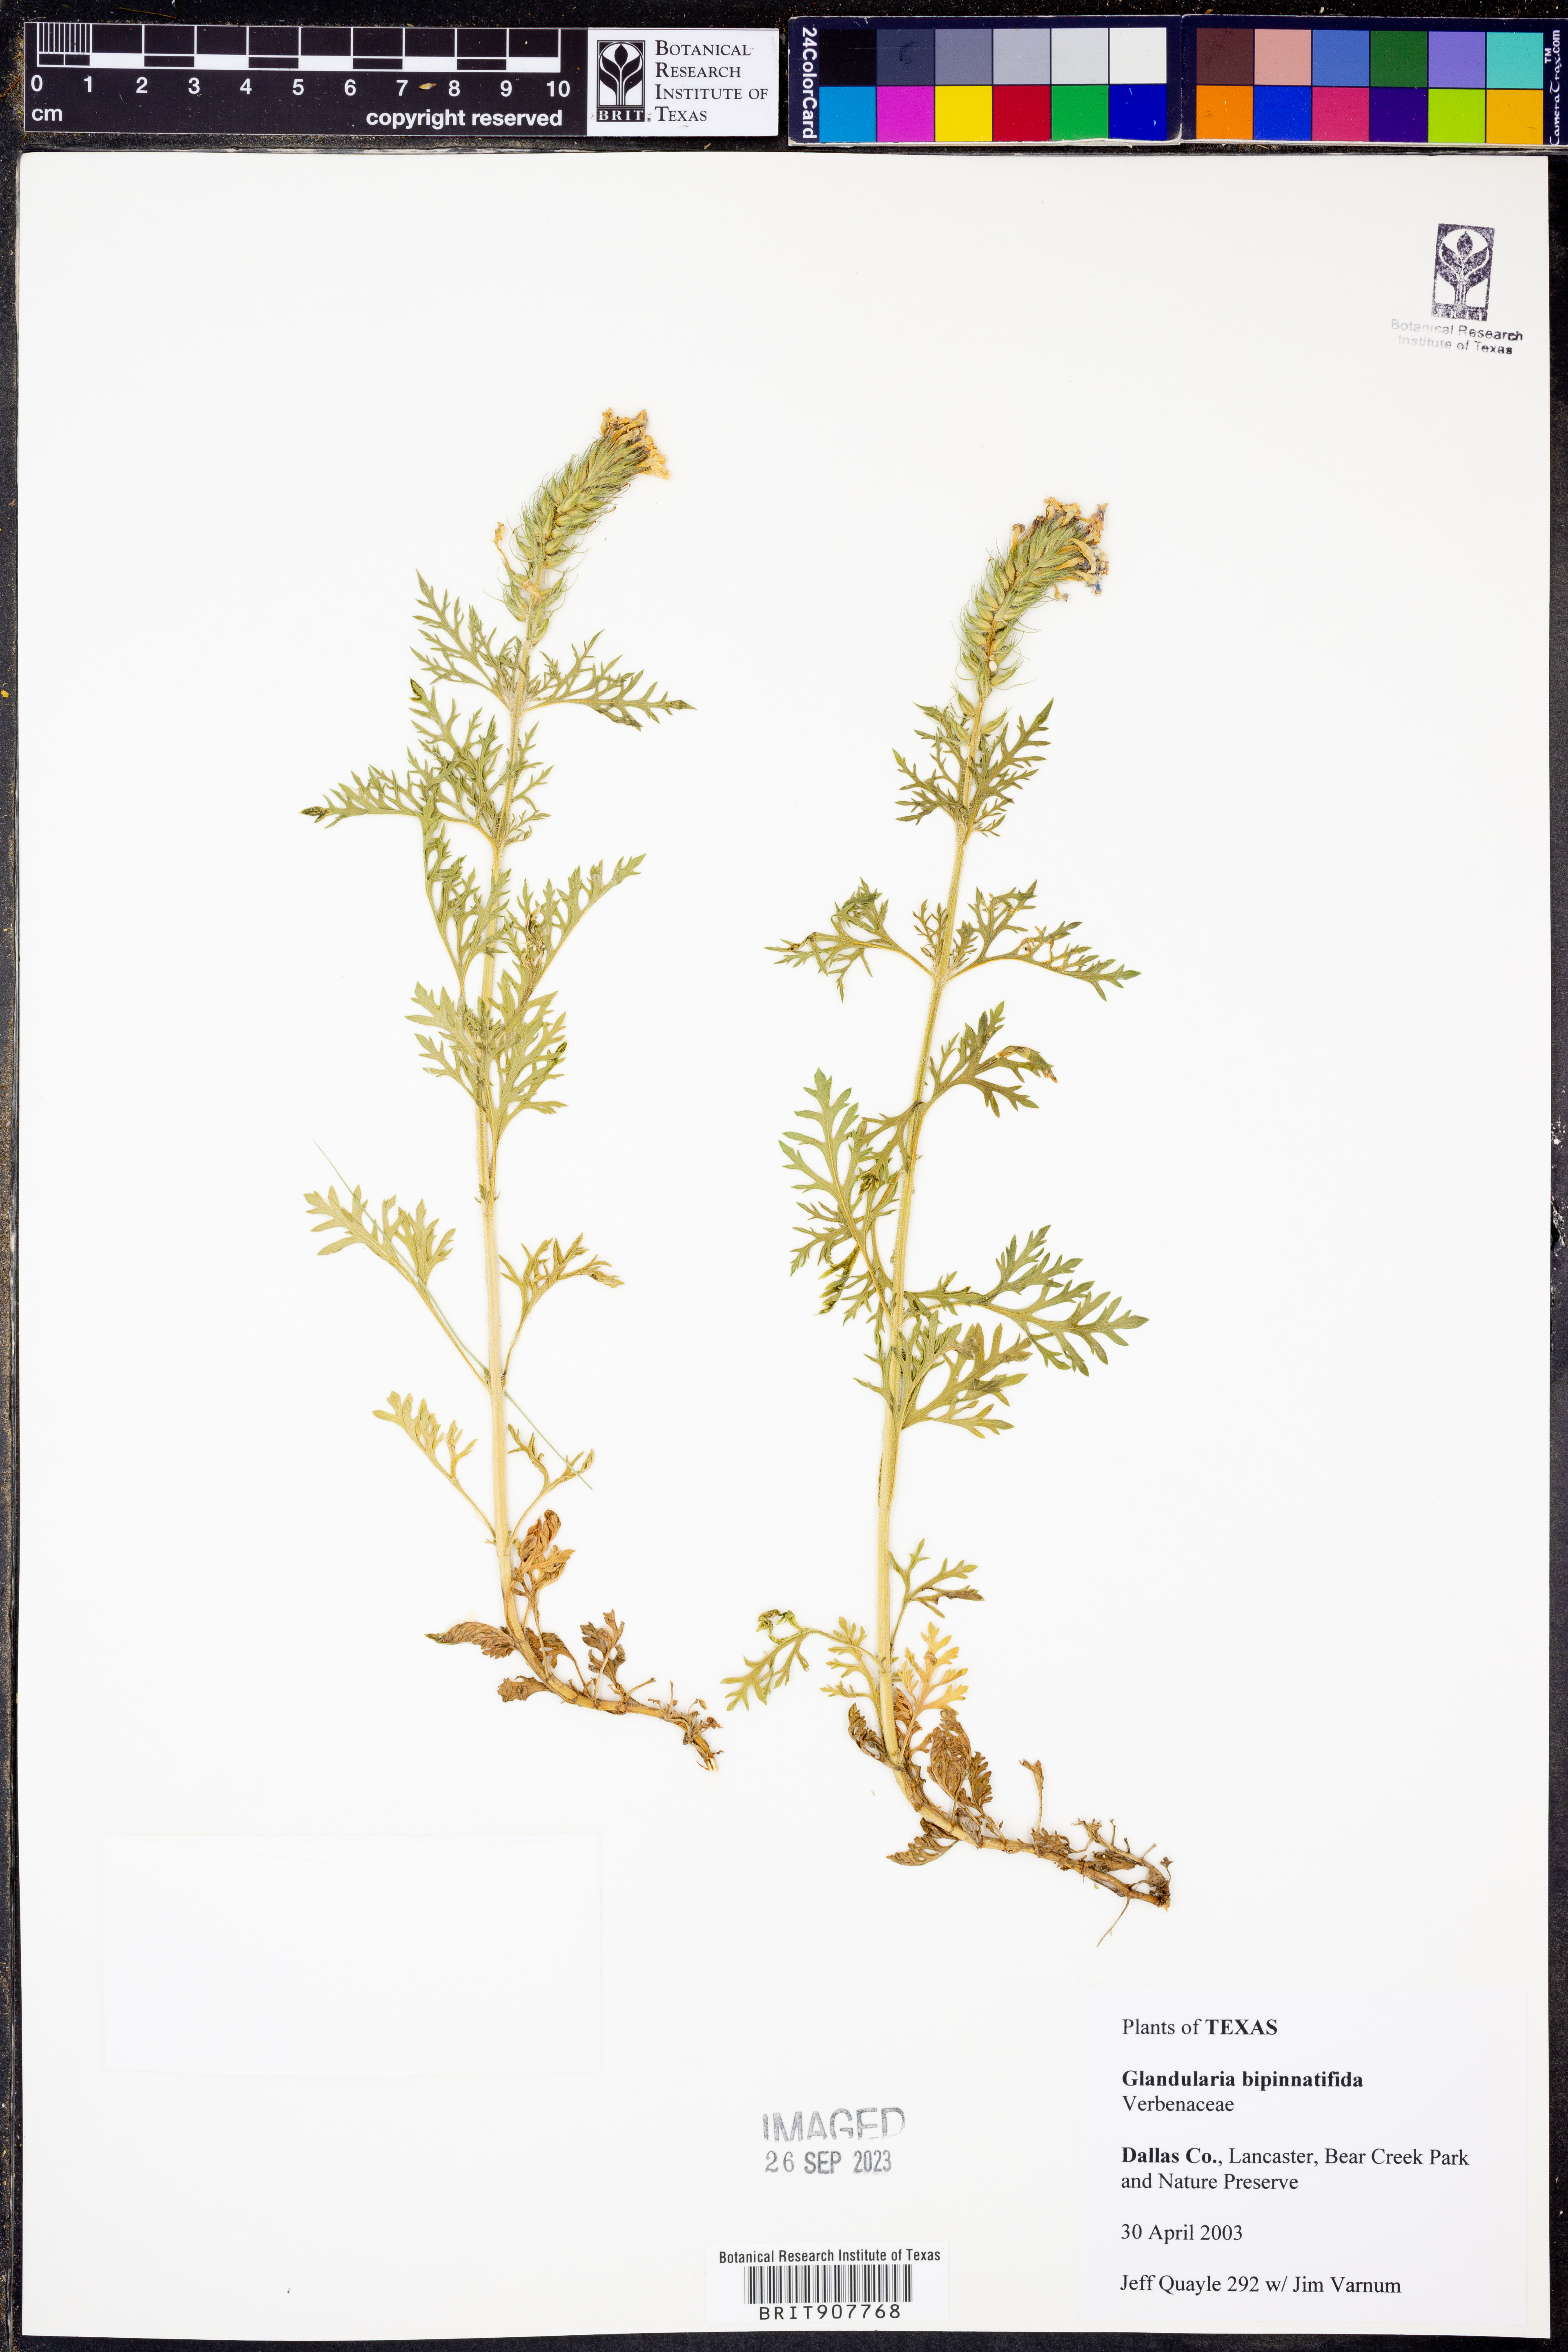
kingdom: Plantae
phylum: Tracheophyta
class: Magnoliopsida
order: Lamiales
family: Verbenaceae
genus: Verbena
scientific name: Verbena bipinnatifida
